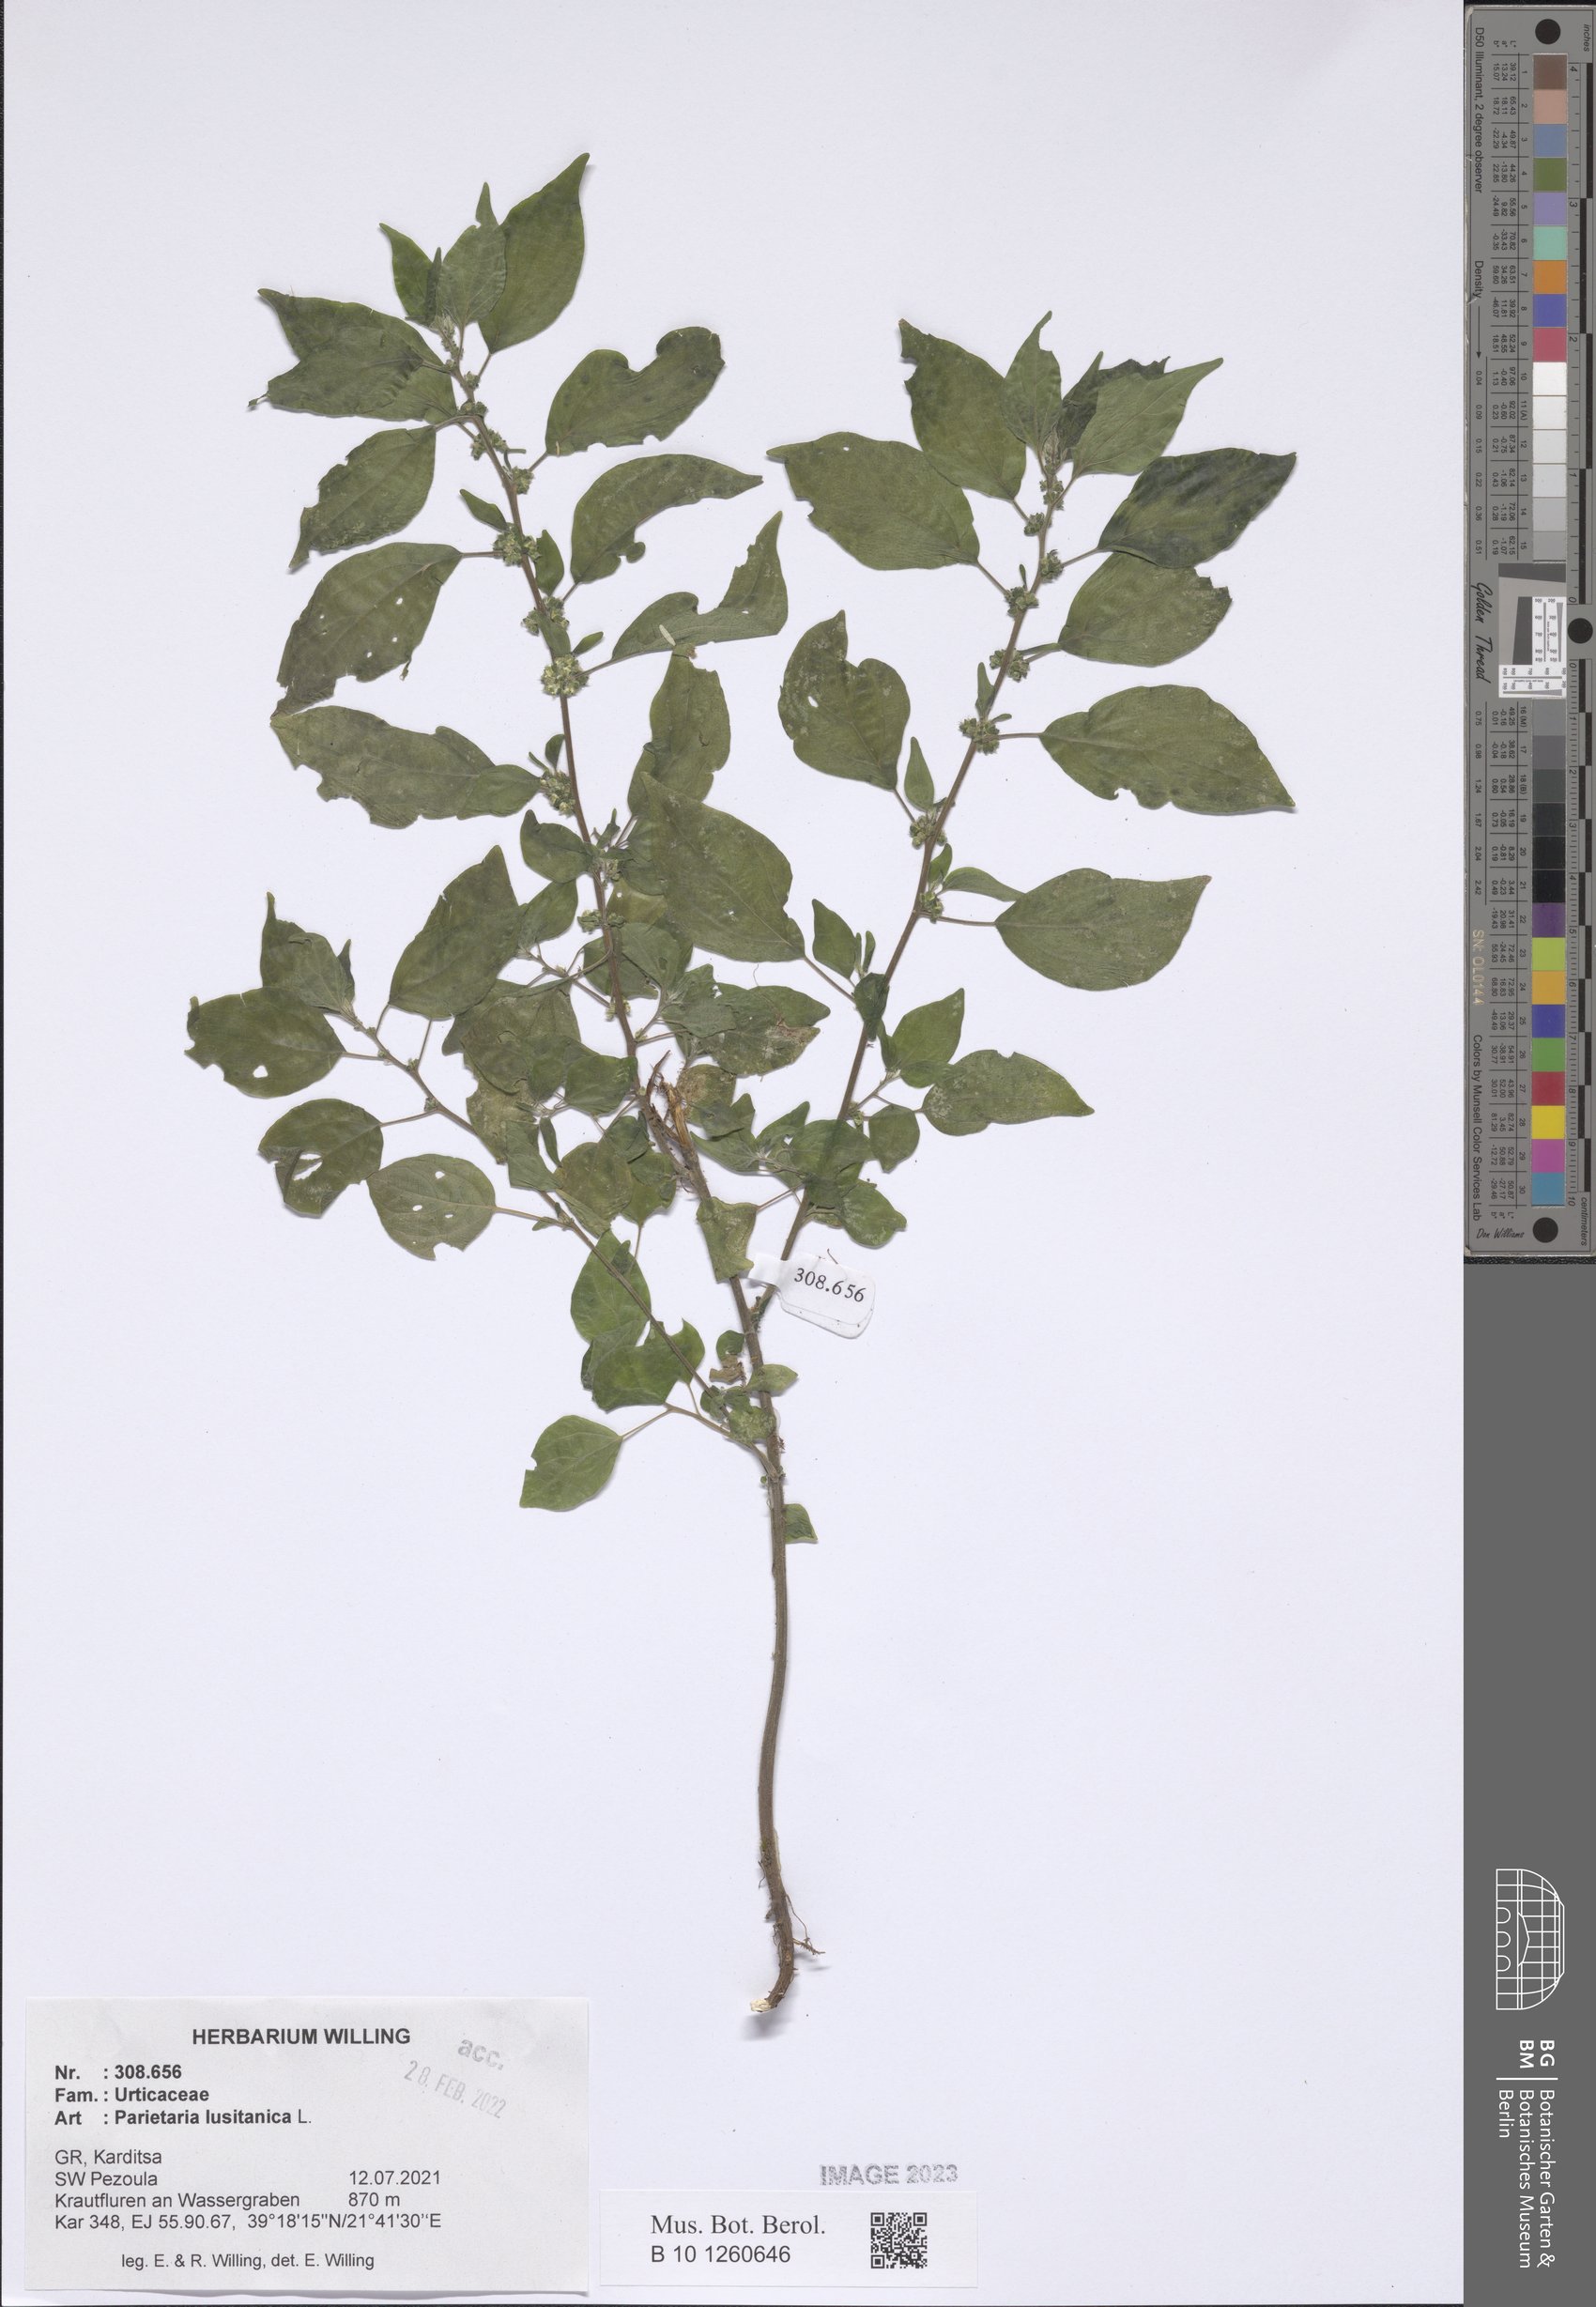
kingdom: Plantae
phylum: Tracheophyta
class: Magnoliopsida
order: Rosales
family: Urticaceae
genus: Parietaria
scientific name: Parietaria lusitanica
